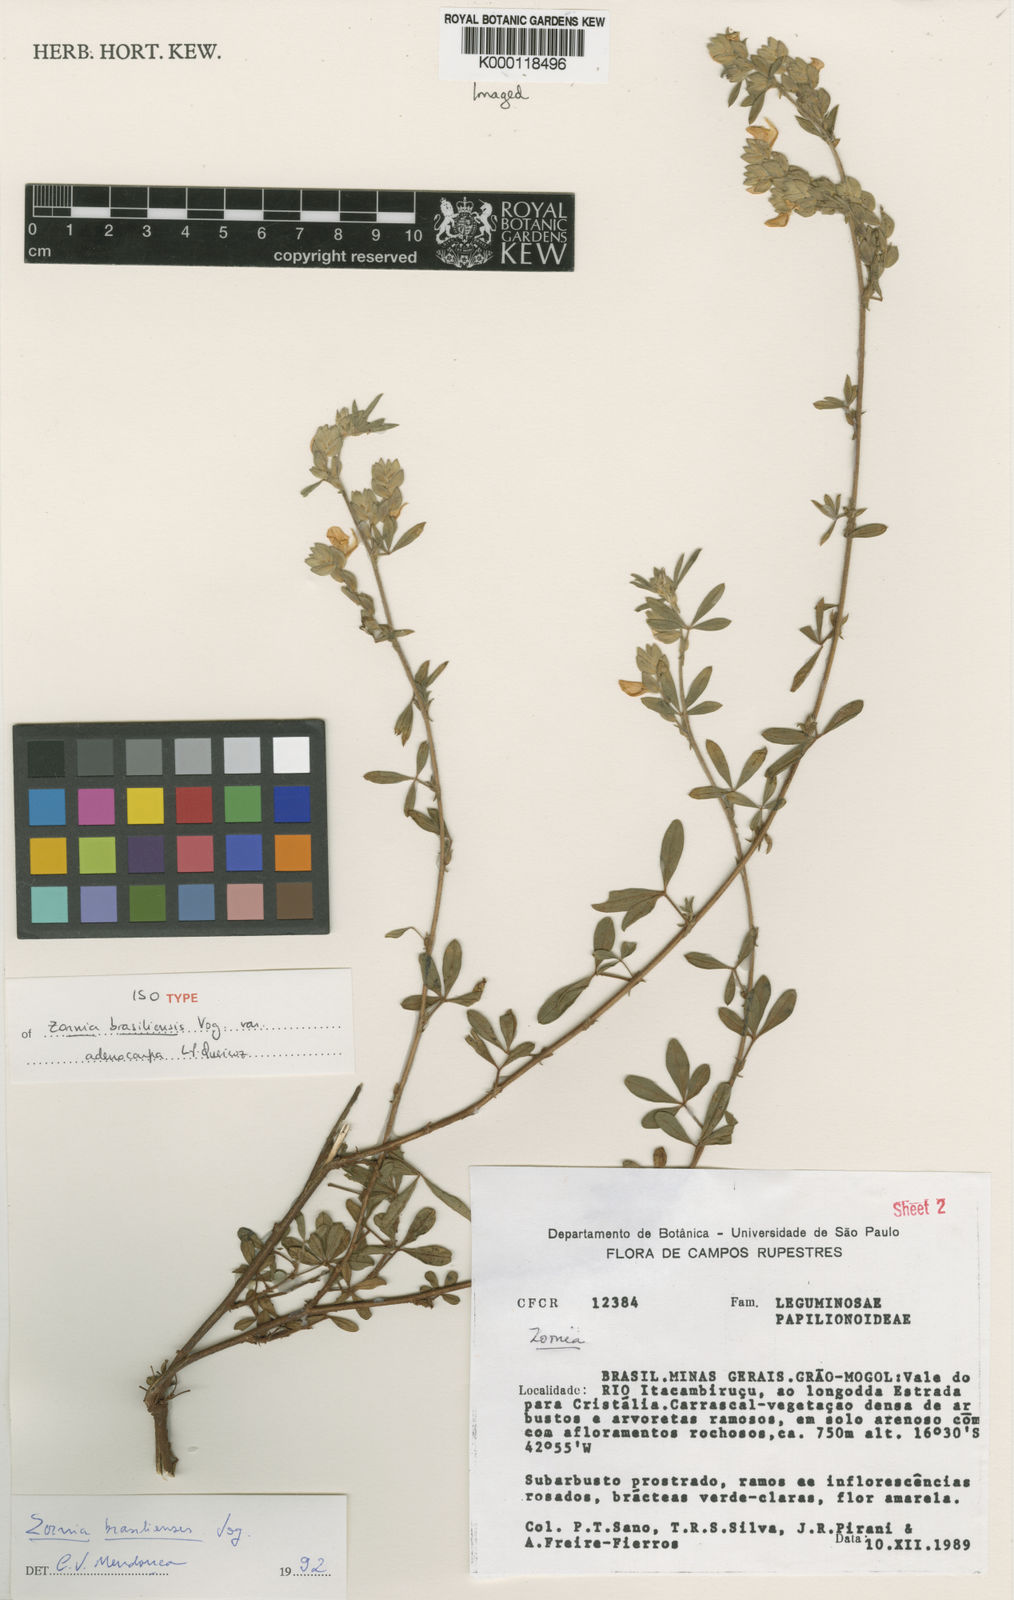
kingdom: Plantae
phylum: Tracheophyta
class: Magnoliopsida
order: Fabales
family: Fabaceae
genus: Zornia
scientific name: Zornia brasiliensis
